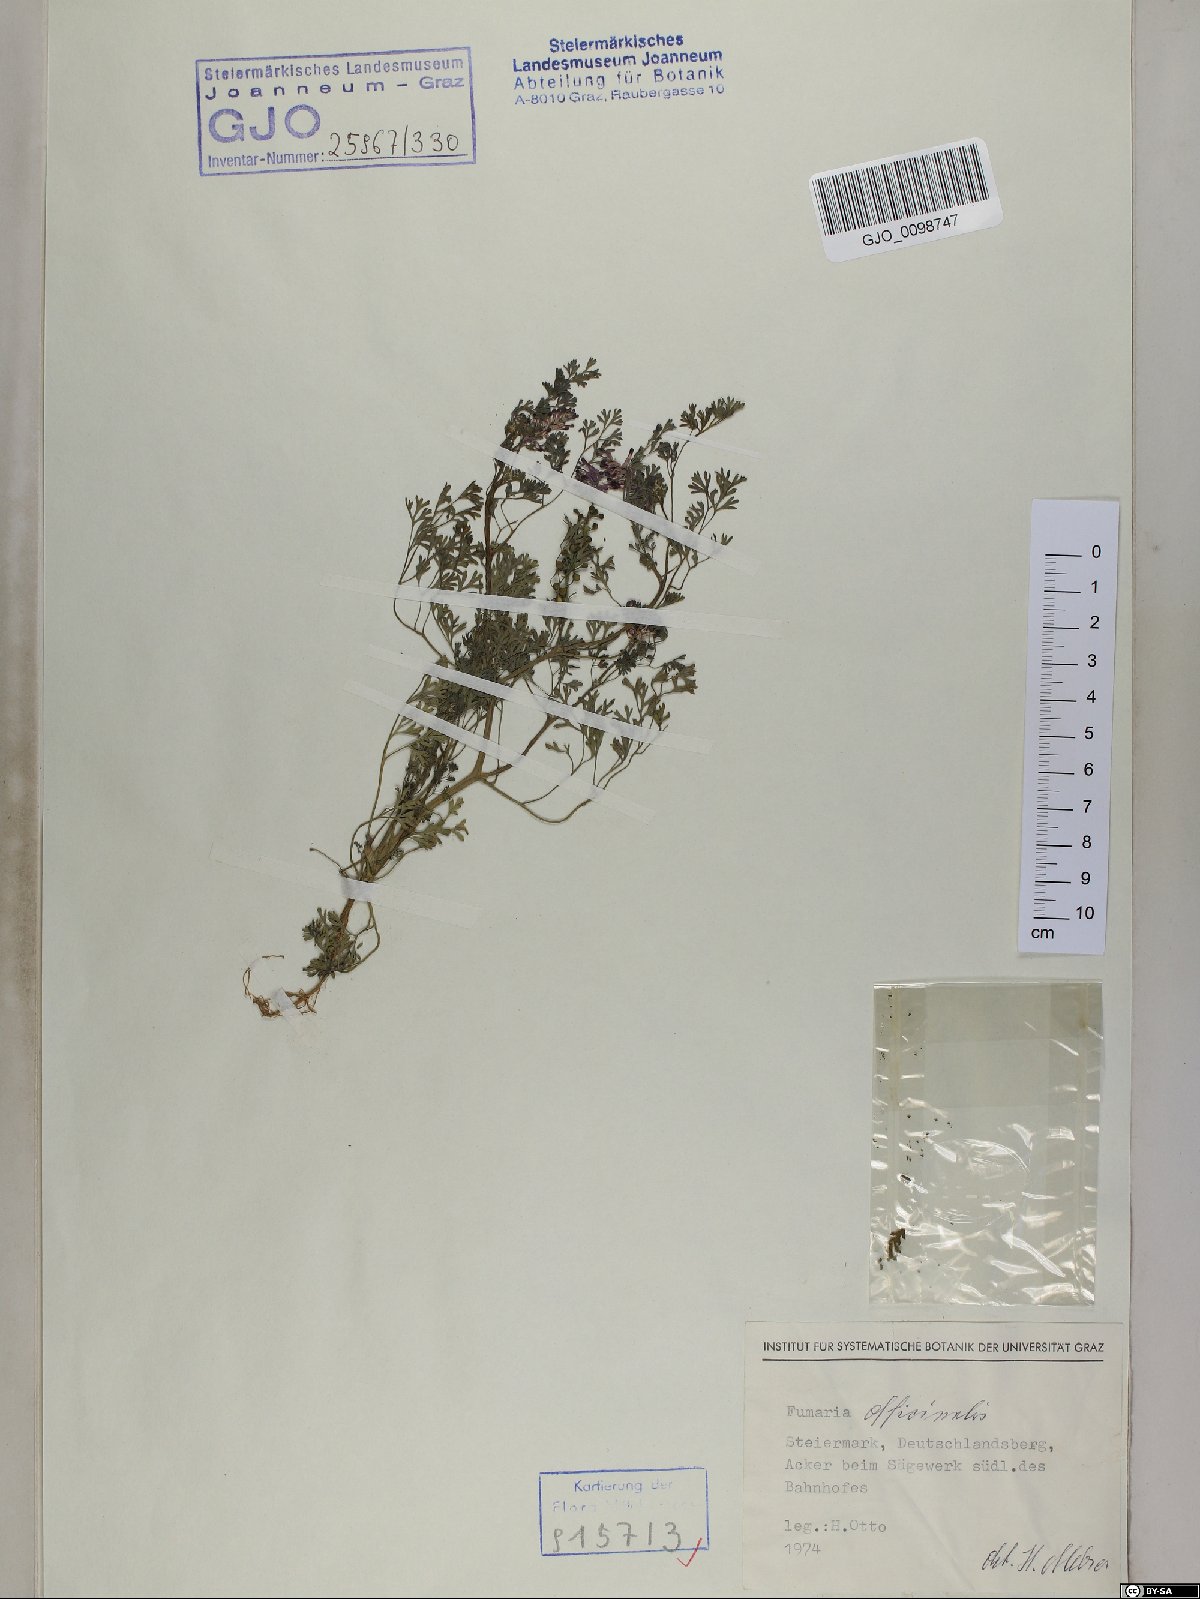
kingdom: Plantae
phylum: Tracheophyta
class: Magnoliopsida
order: Ranunculales
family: Papaveraceae
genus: Fumaria
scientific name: Fumaria officinalis
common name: Common fumitory
